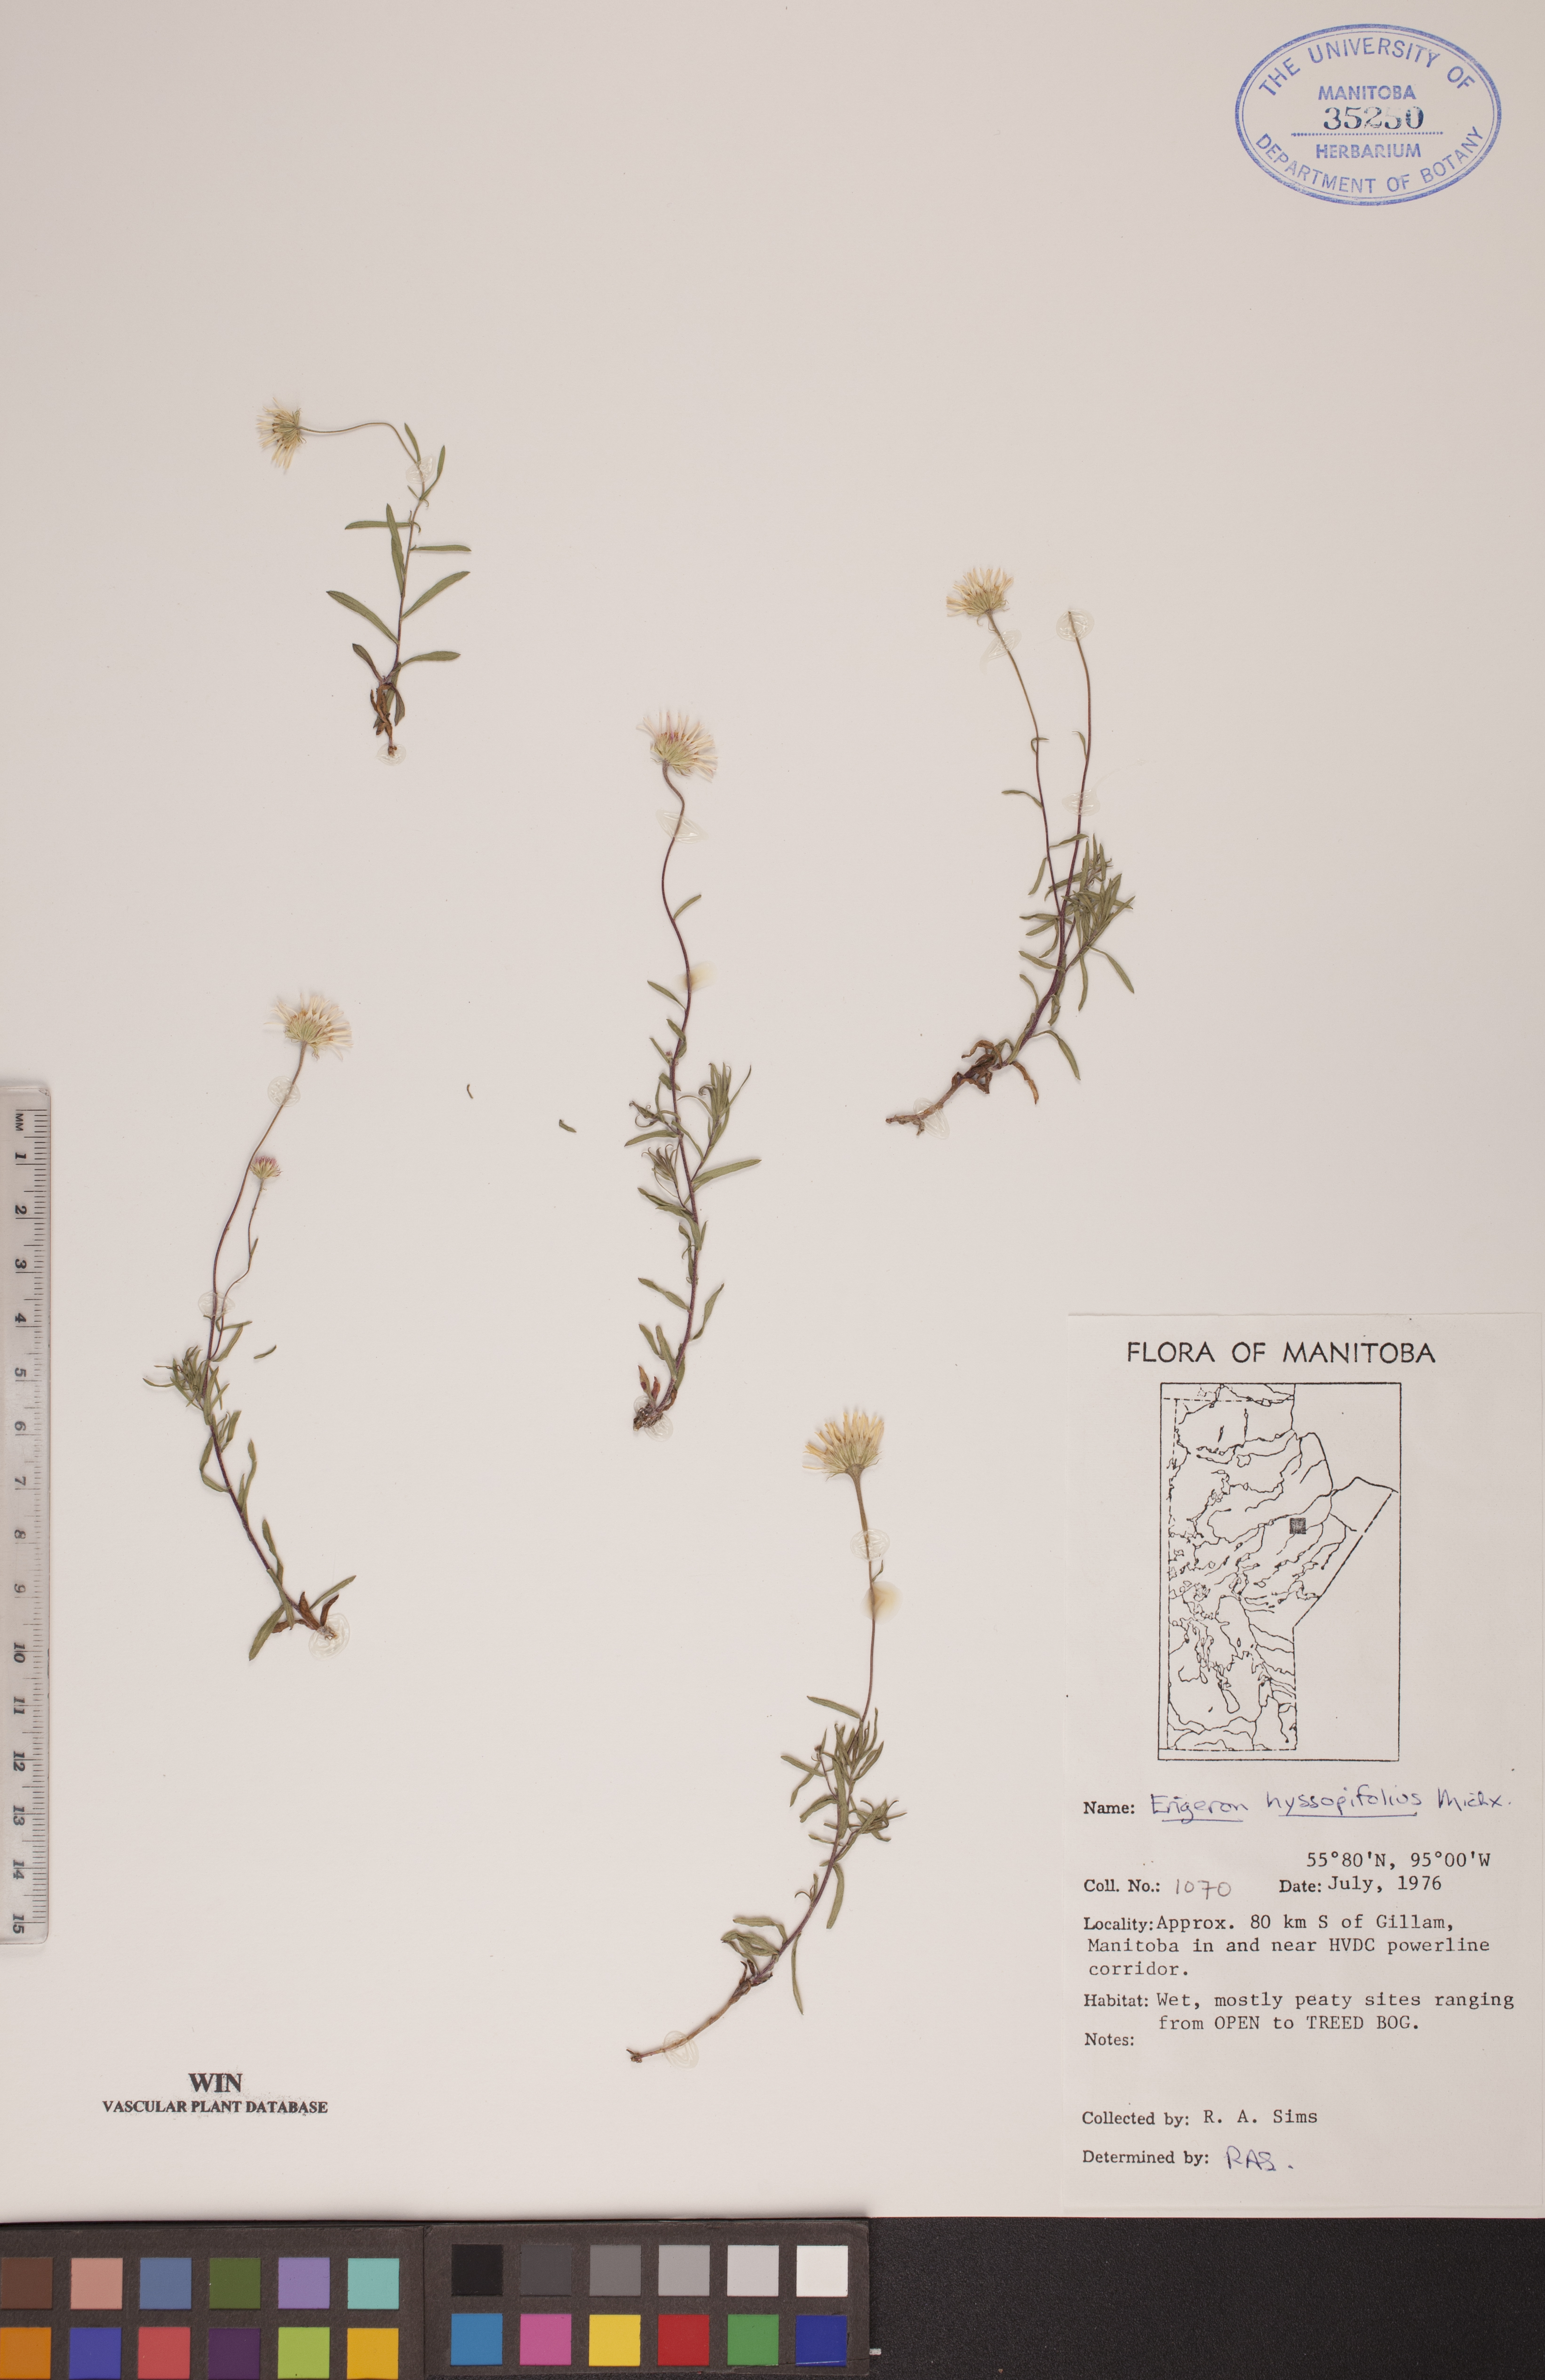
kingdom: Plantae
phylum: Tracheophyta
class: Magnoliopsida
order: Asterales
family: Asteraceae
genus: Erigeron
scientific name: Erigeron hyssopifolius
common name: Daisy fleabane
